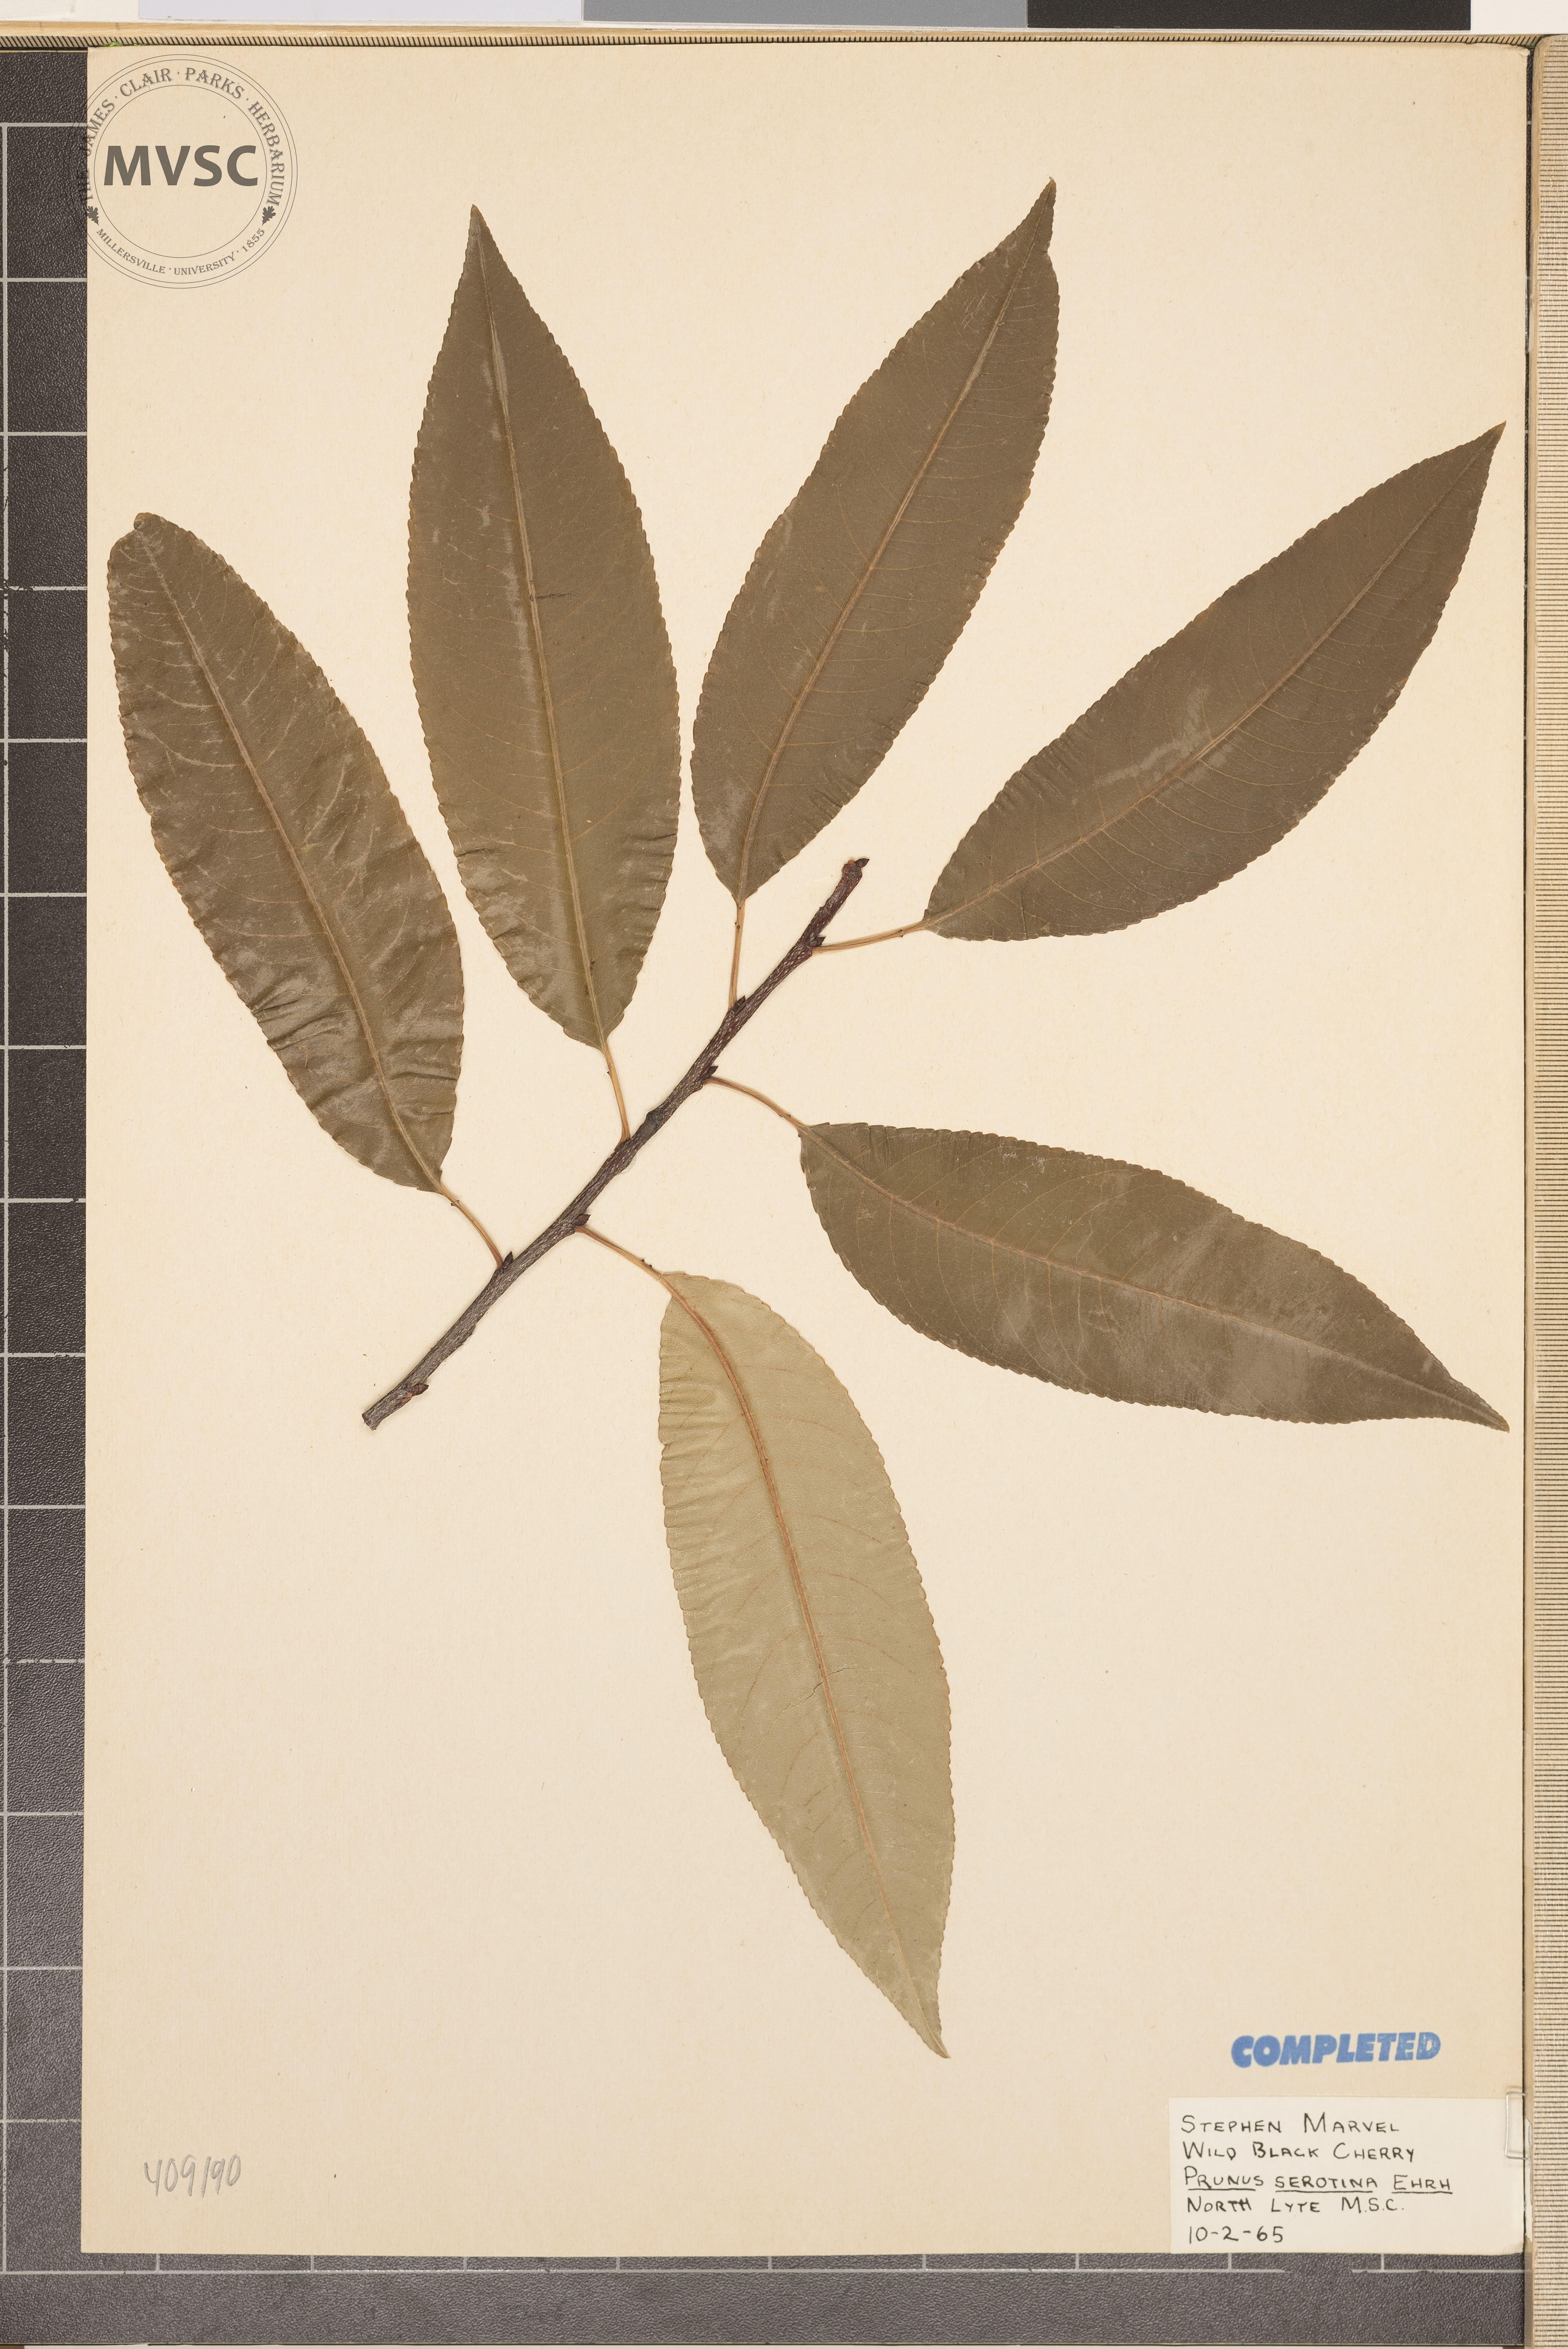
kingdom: Plantae
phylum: Tracheophyta
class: Magnoliopsida
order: Rosales
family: Rosaceae
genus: Prunus
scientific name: Prunus serotina
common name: Black cherry
